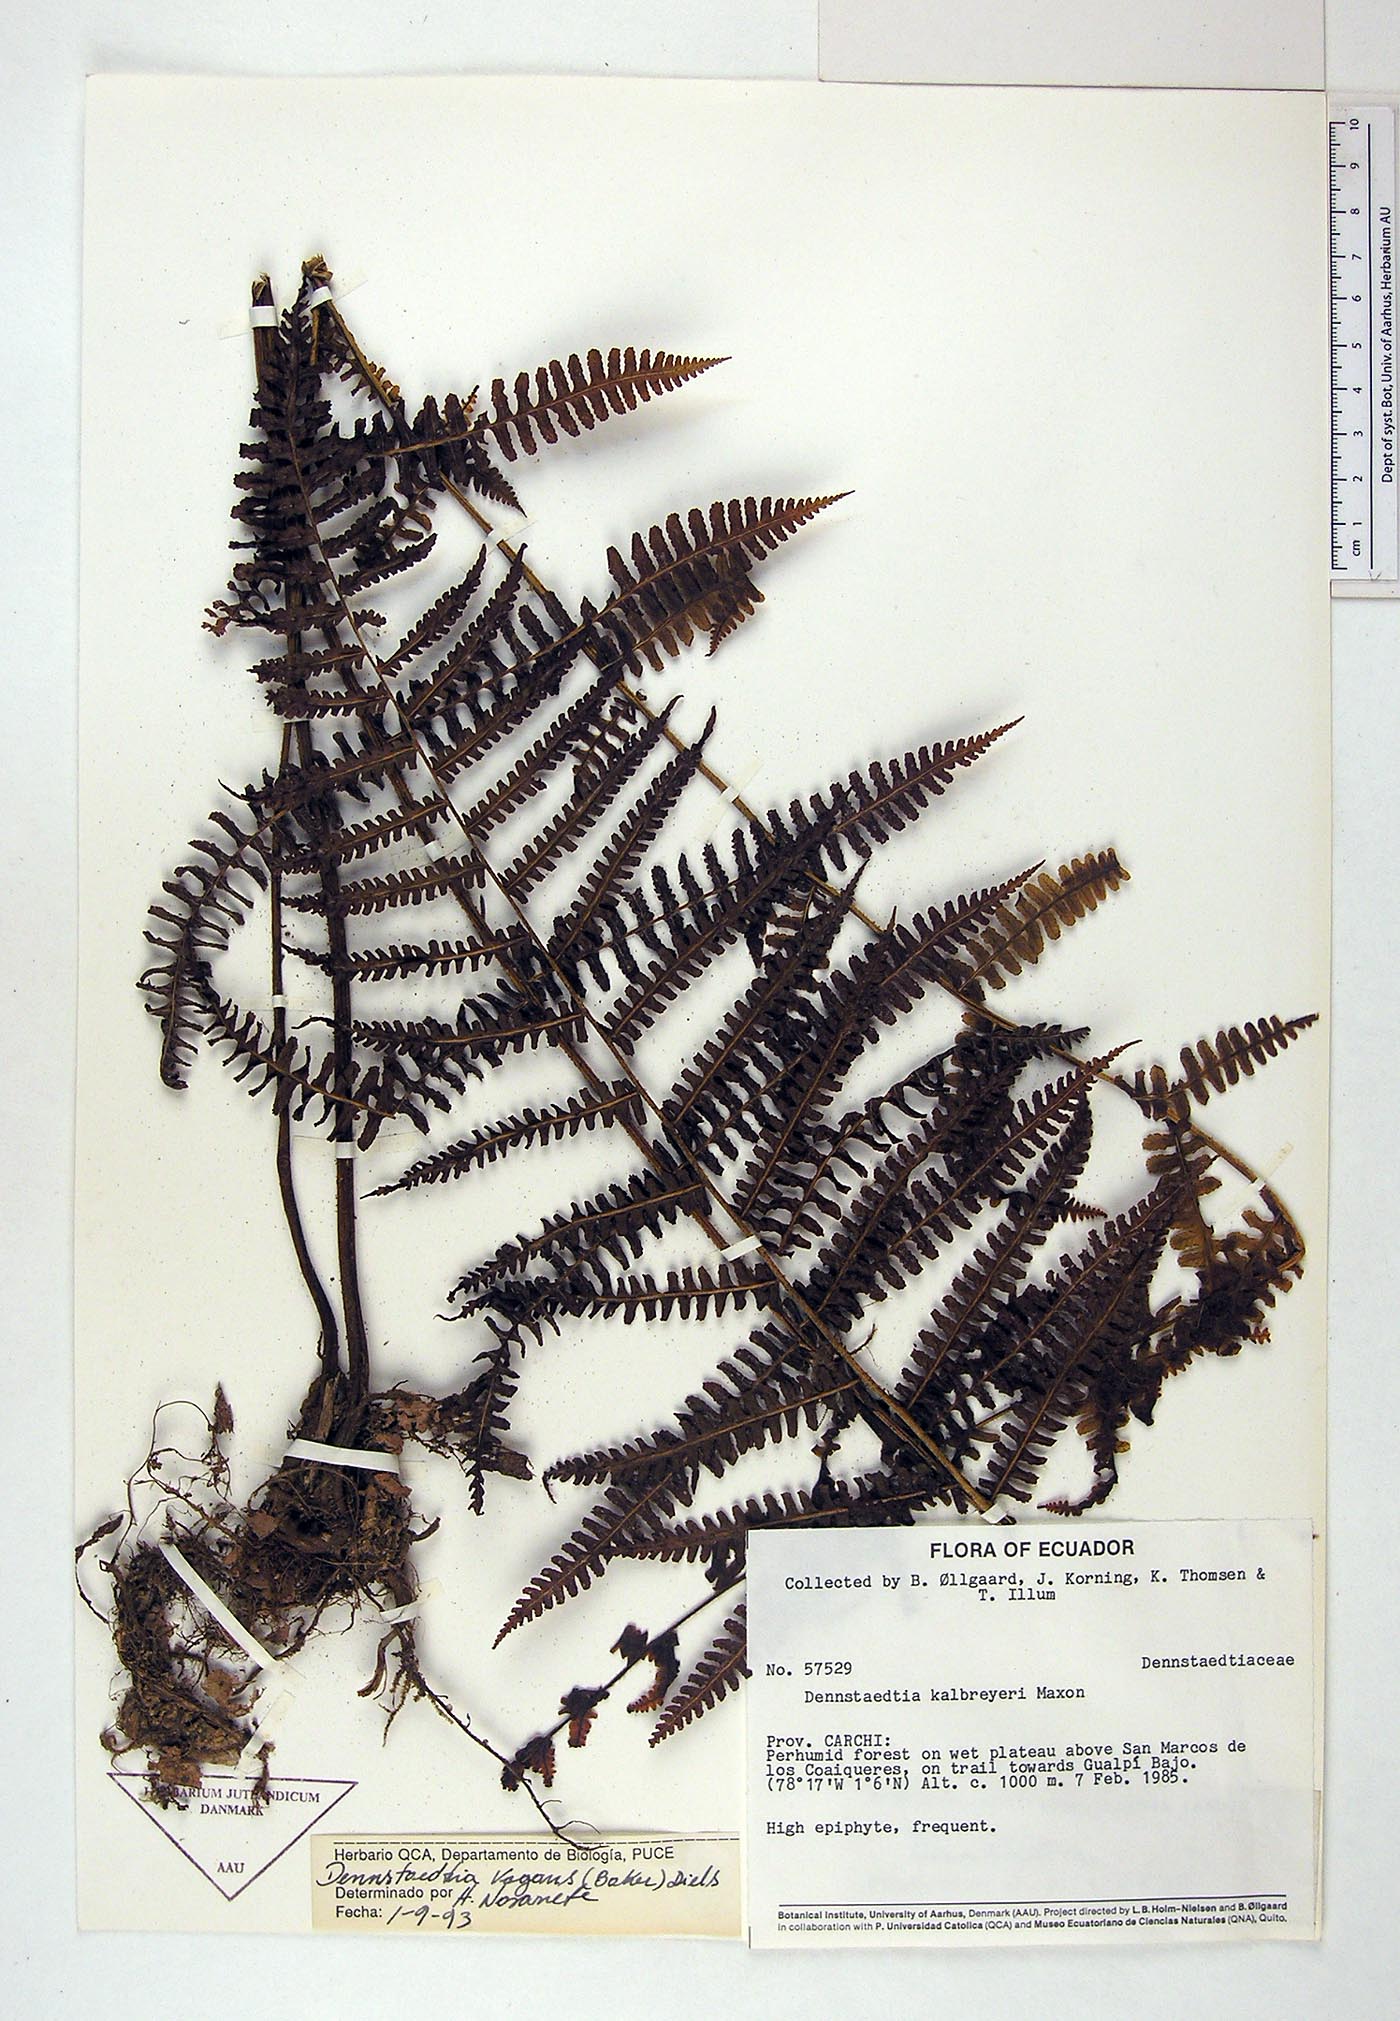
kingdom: Plantae
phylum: Tracheophyta
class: Polypodiopsida
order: Polypodiales
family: Dennstaedtiaceae
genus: Dennstaedtia
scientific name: Dennstaedtia vagans
